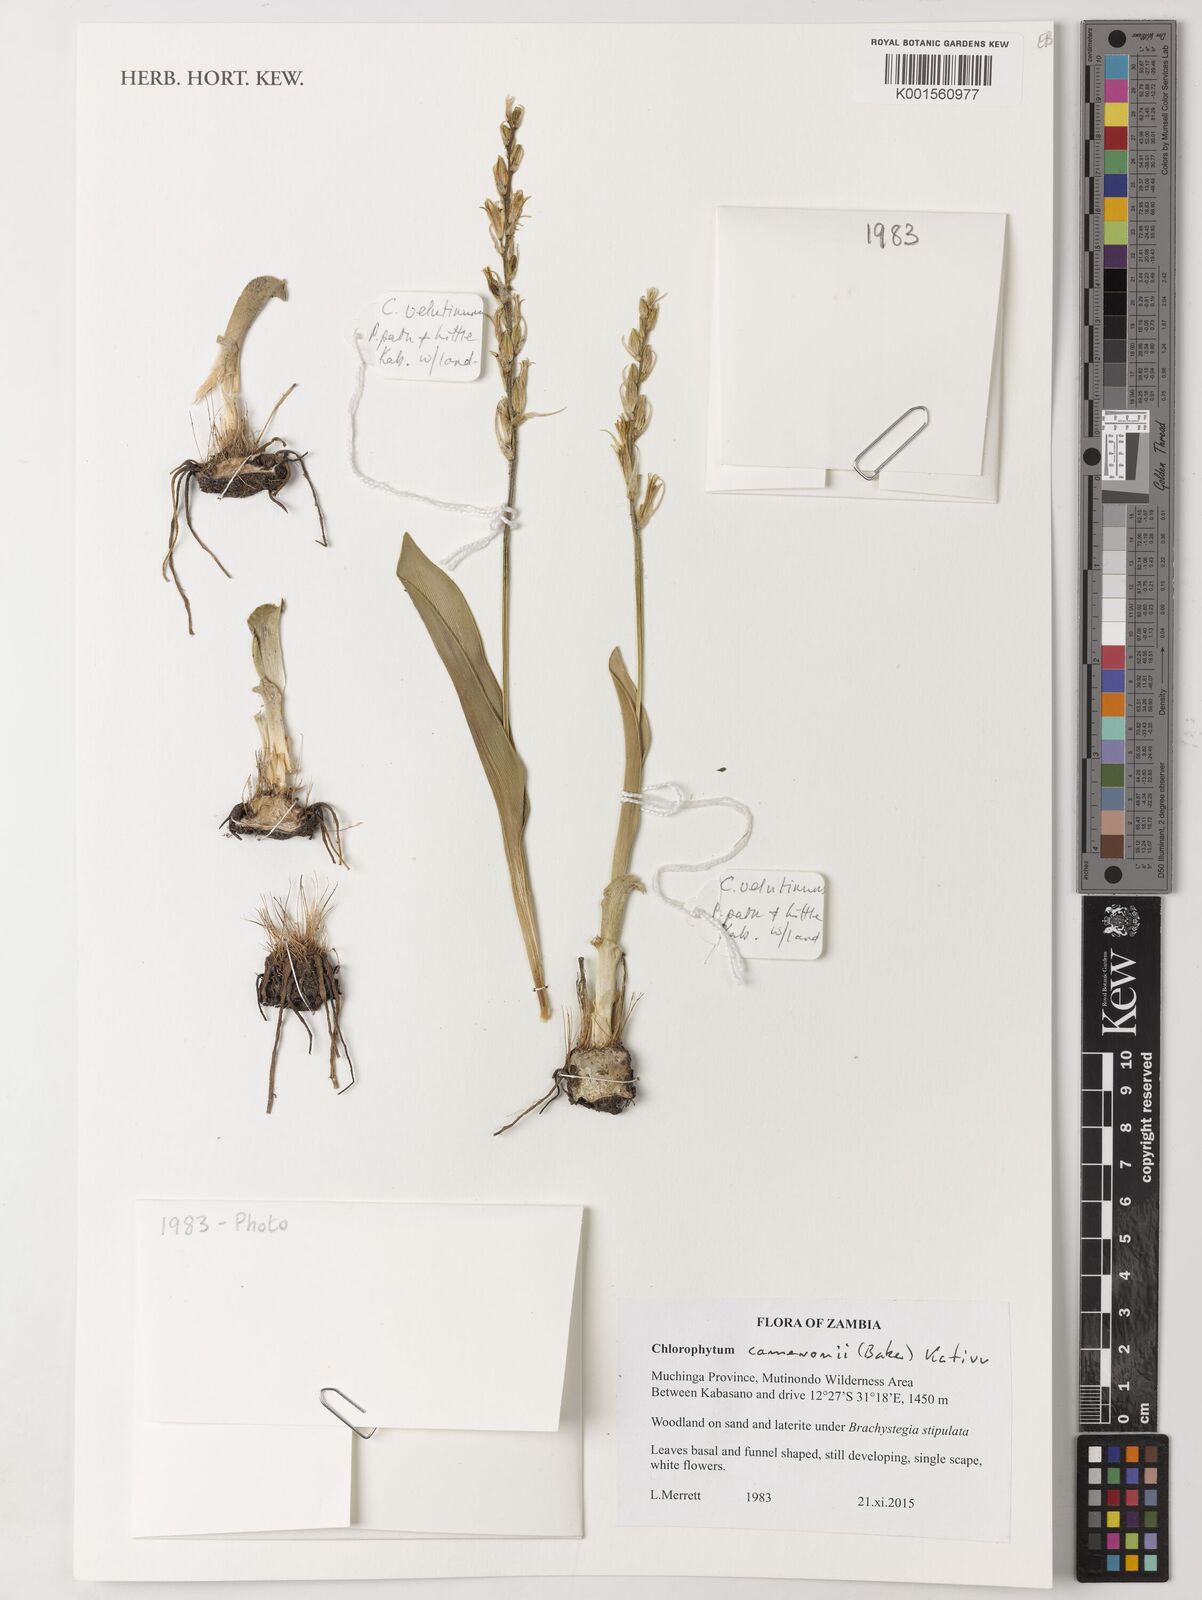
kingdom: Plantae
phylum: Tracheophyta
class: Liliopsida
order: Asparagales
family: Asparagaceae
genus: Chlorophytum
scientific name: Chlorophytum cameronii
